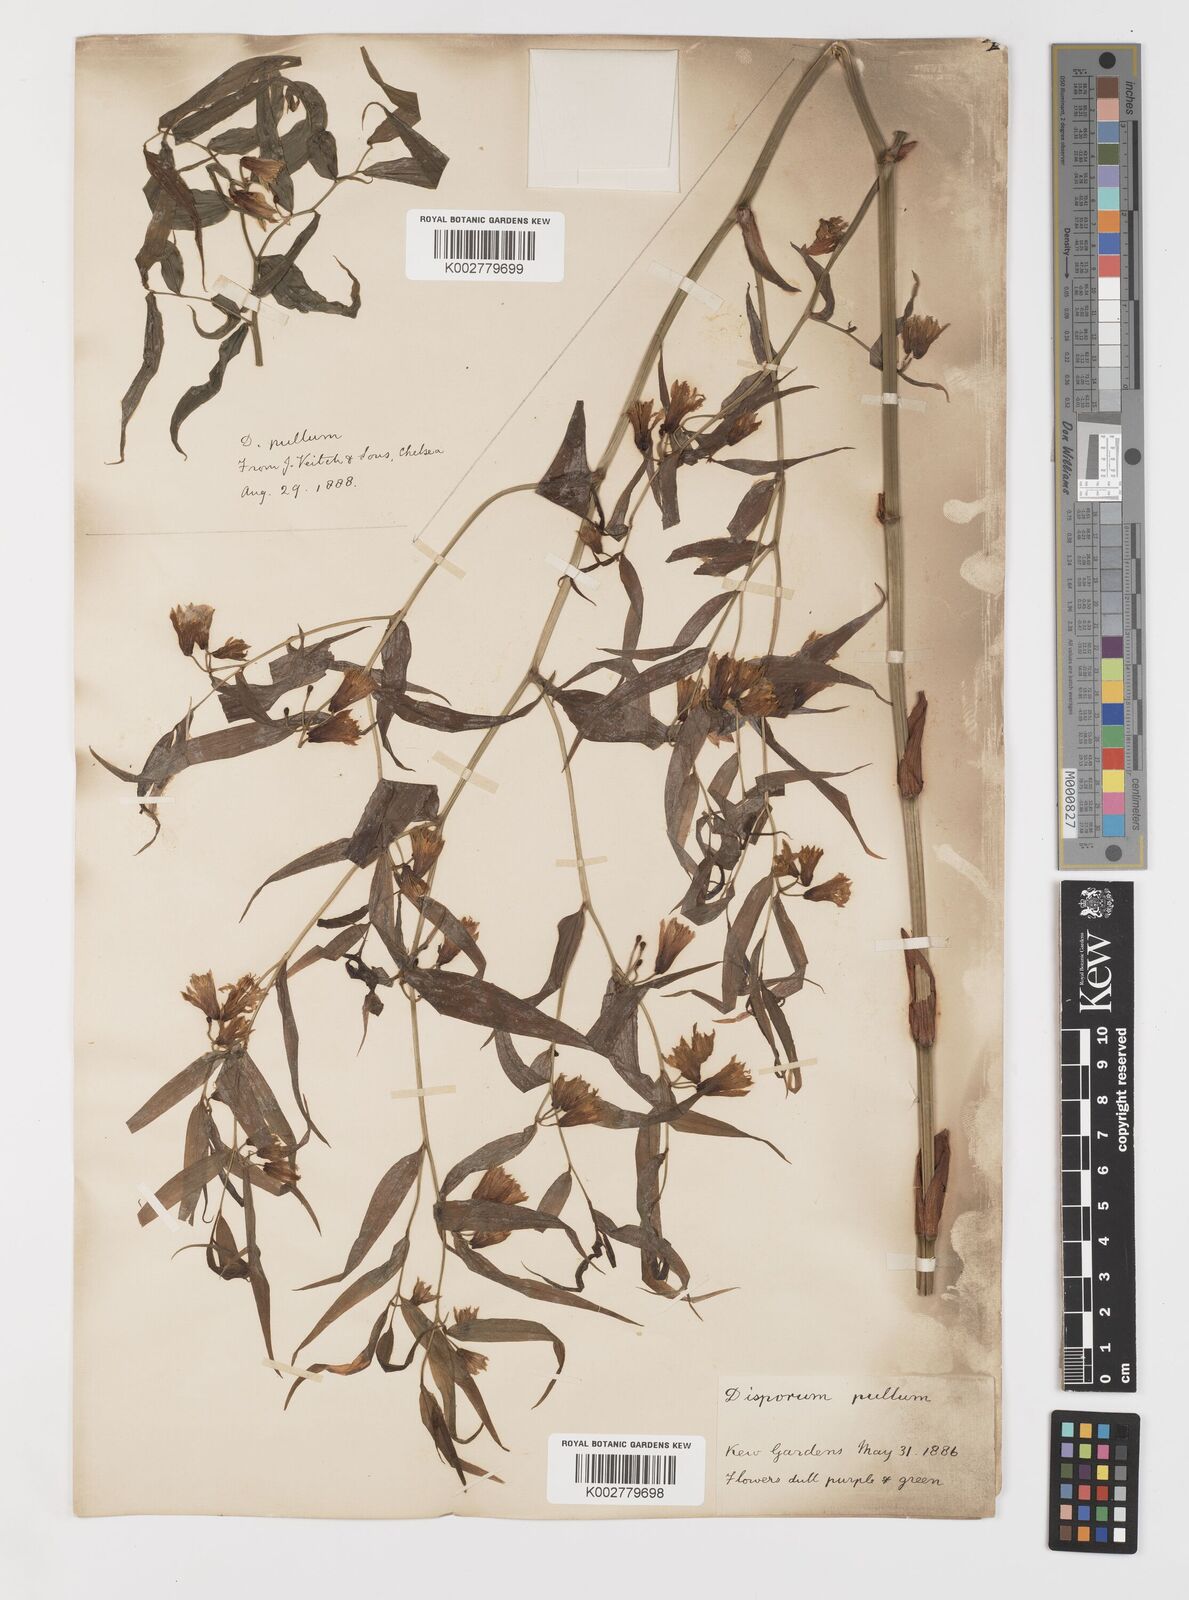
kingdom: Plantae
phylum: Tracheophyta
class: Liliopsida
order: Liliales
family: Colchicaceae
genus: Disporum
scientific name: Disporum cantoniense
